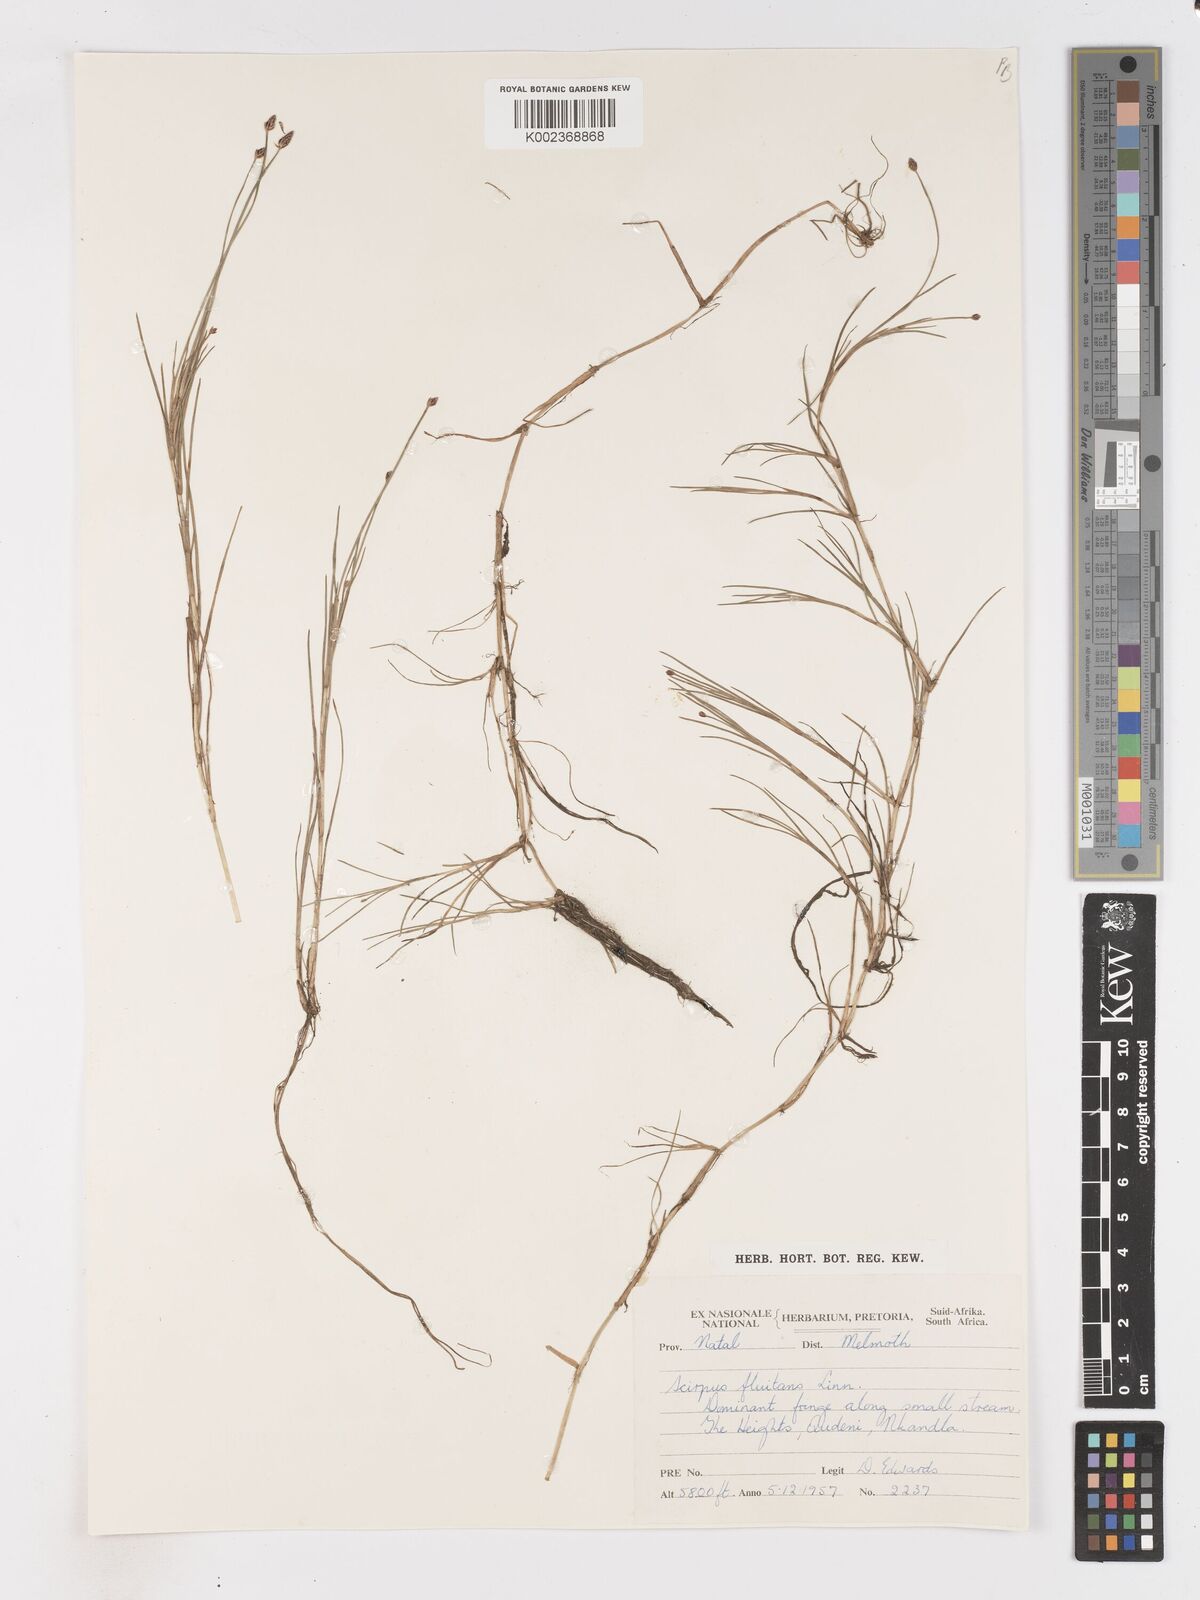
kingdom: Plantae
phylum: Tracheophyta
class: Liliopsida
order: Poales
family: Cyperaceae
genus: Isolepis
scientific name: Isolepis fluitans
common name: Floating club-rush
